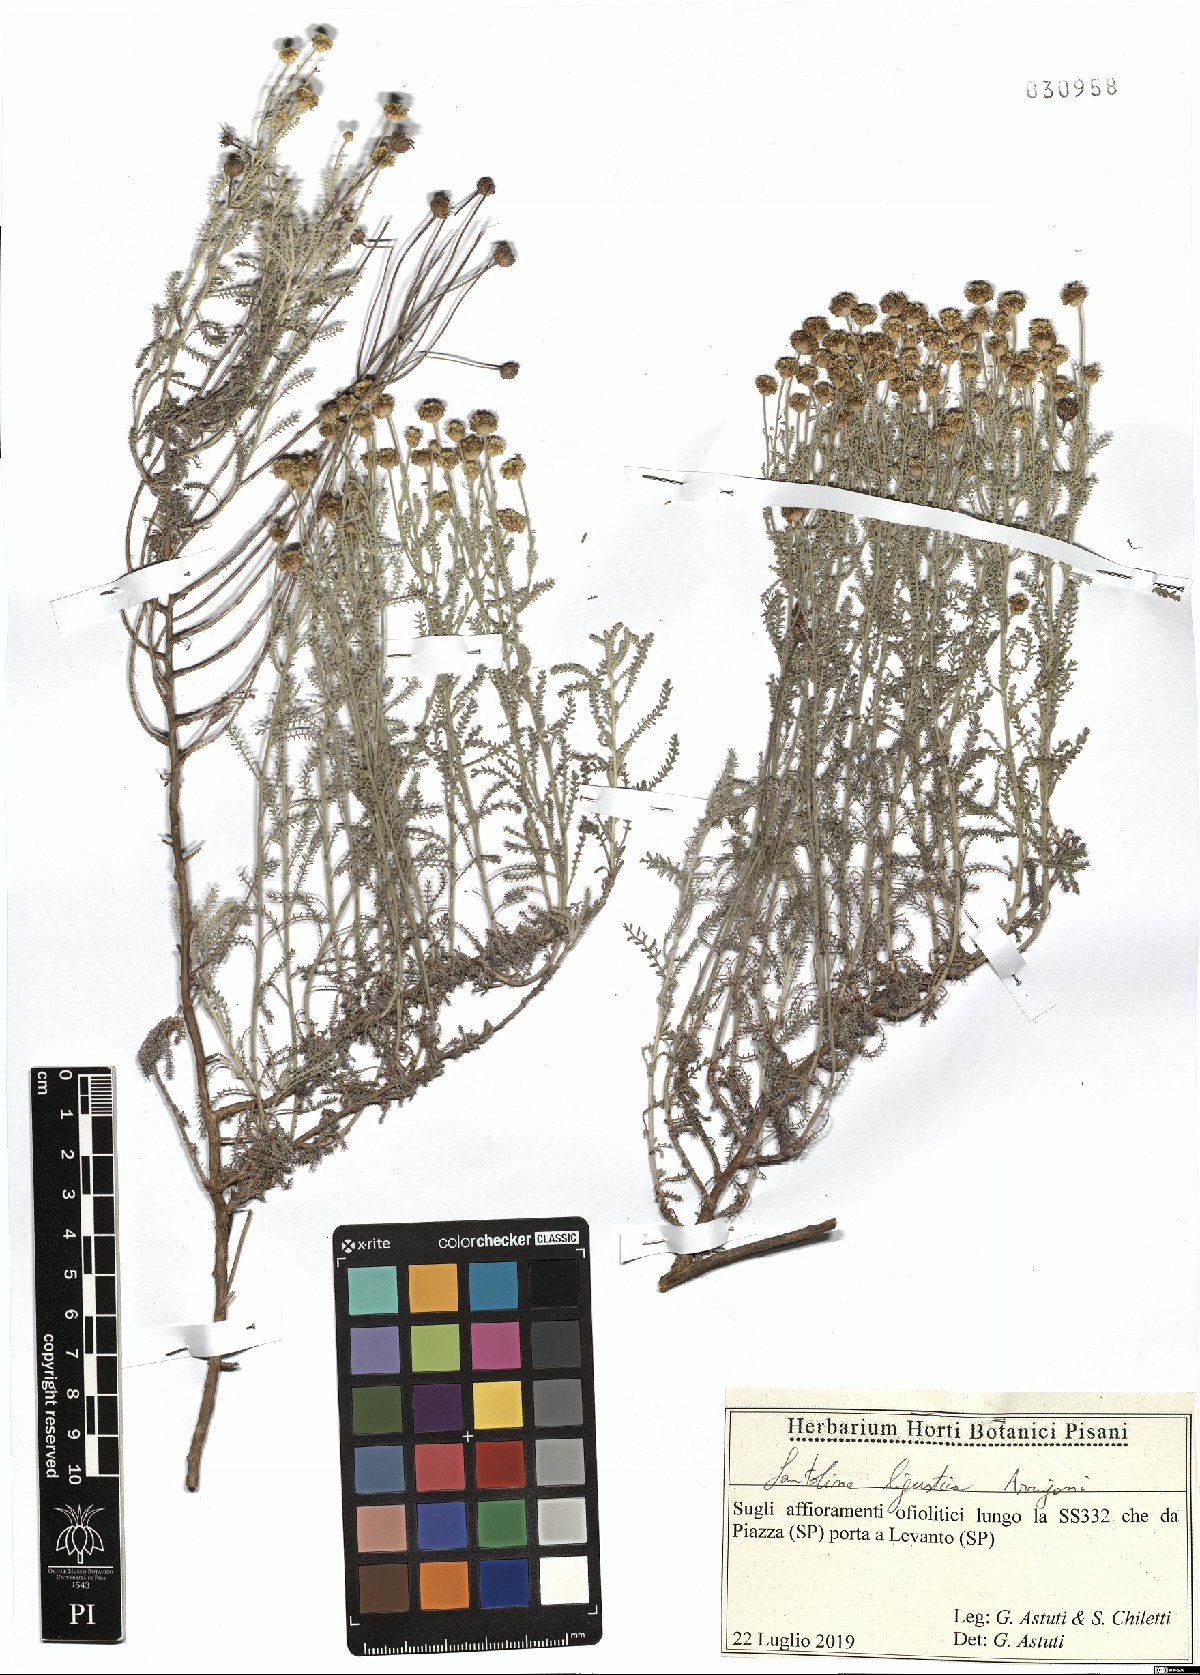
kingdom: Plantae
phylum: Tracheophyta
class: Magnoliopsida
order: Asterales
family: Asteraceae
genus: Santolina
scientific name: Santolina ligustica
